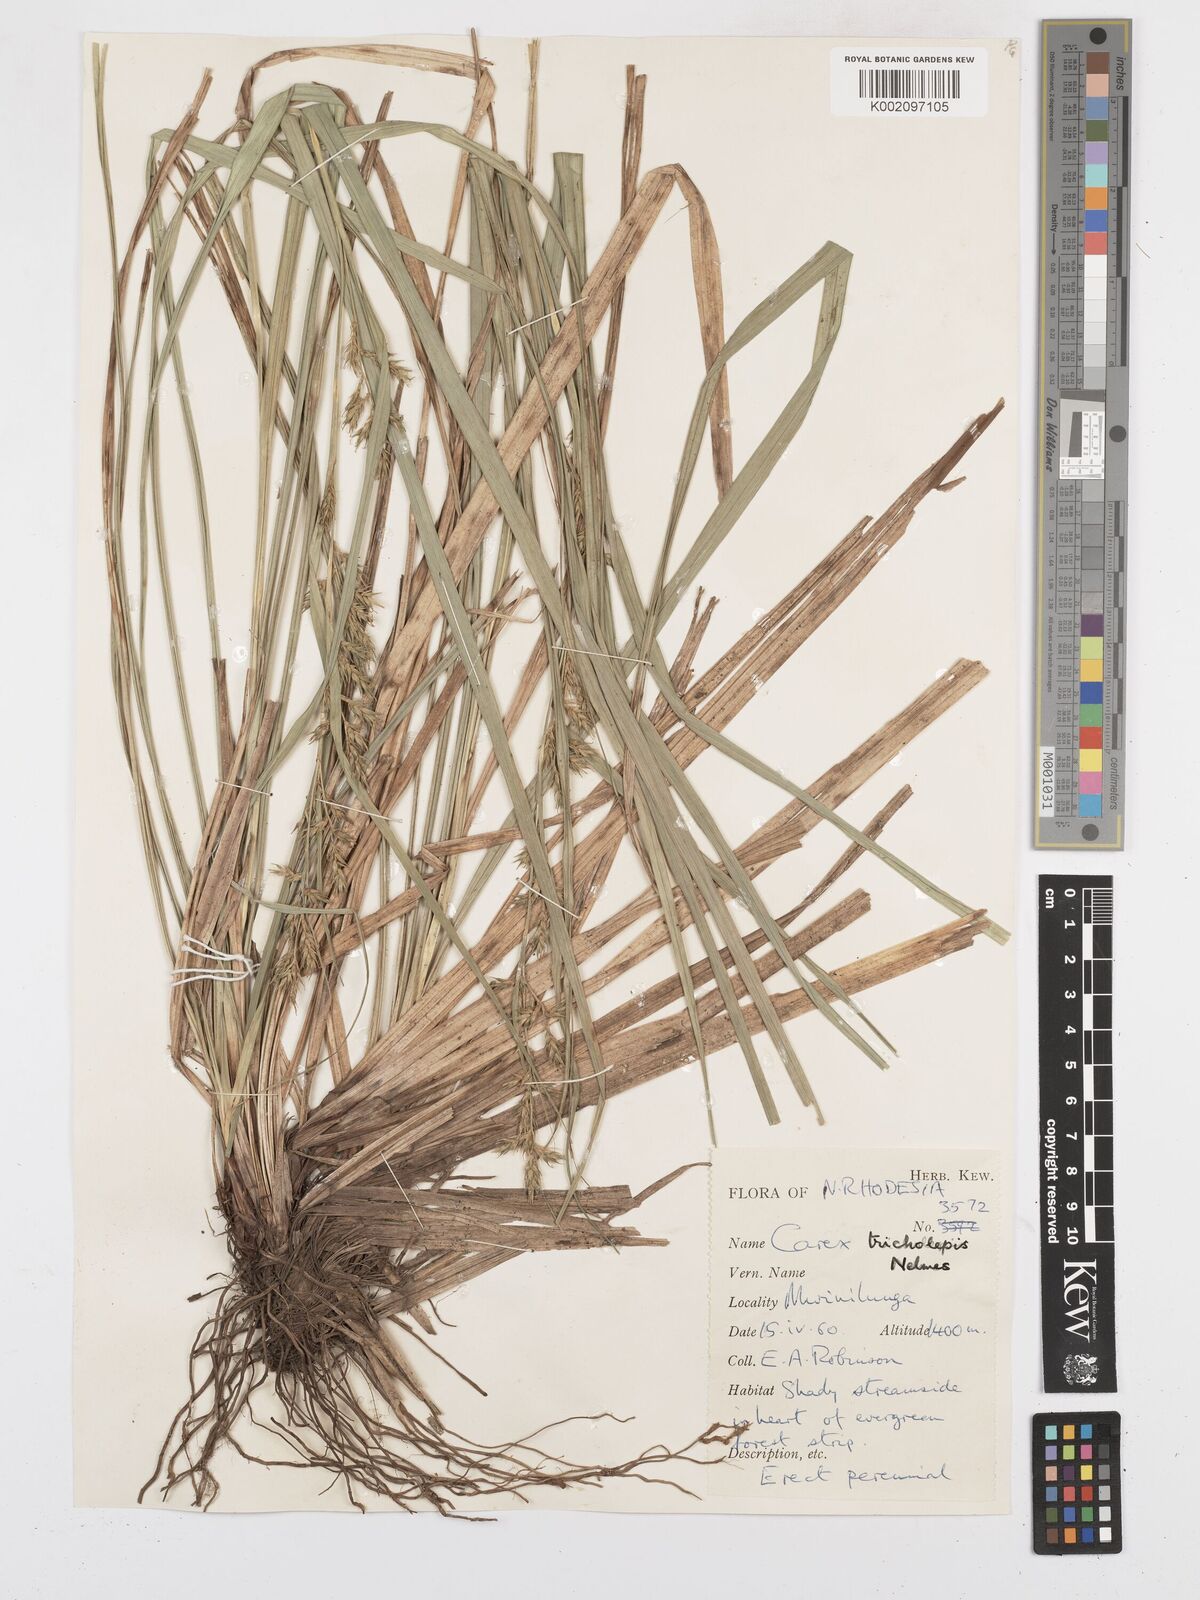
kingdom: Plantae
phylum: Tracheophyta
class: Liliopsida
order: Poales
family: Cyperaceae
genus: Carex
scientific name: Carex tricholepis
